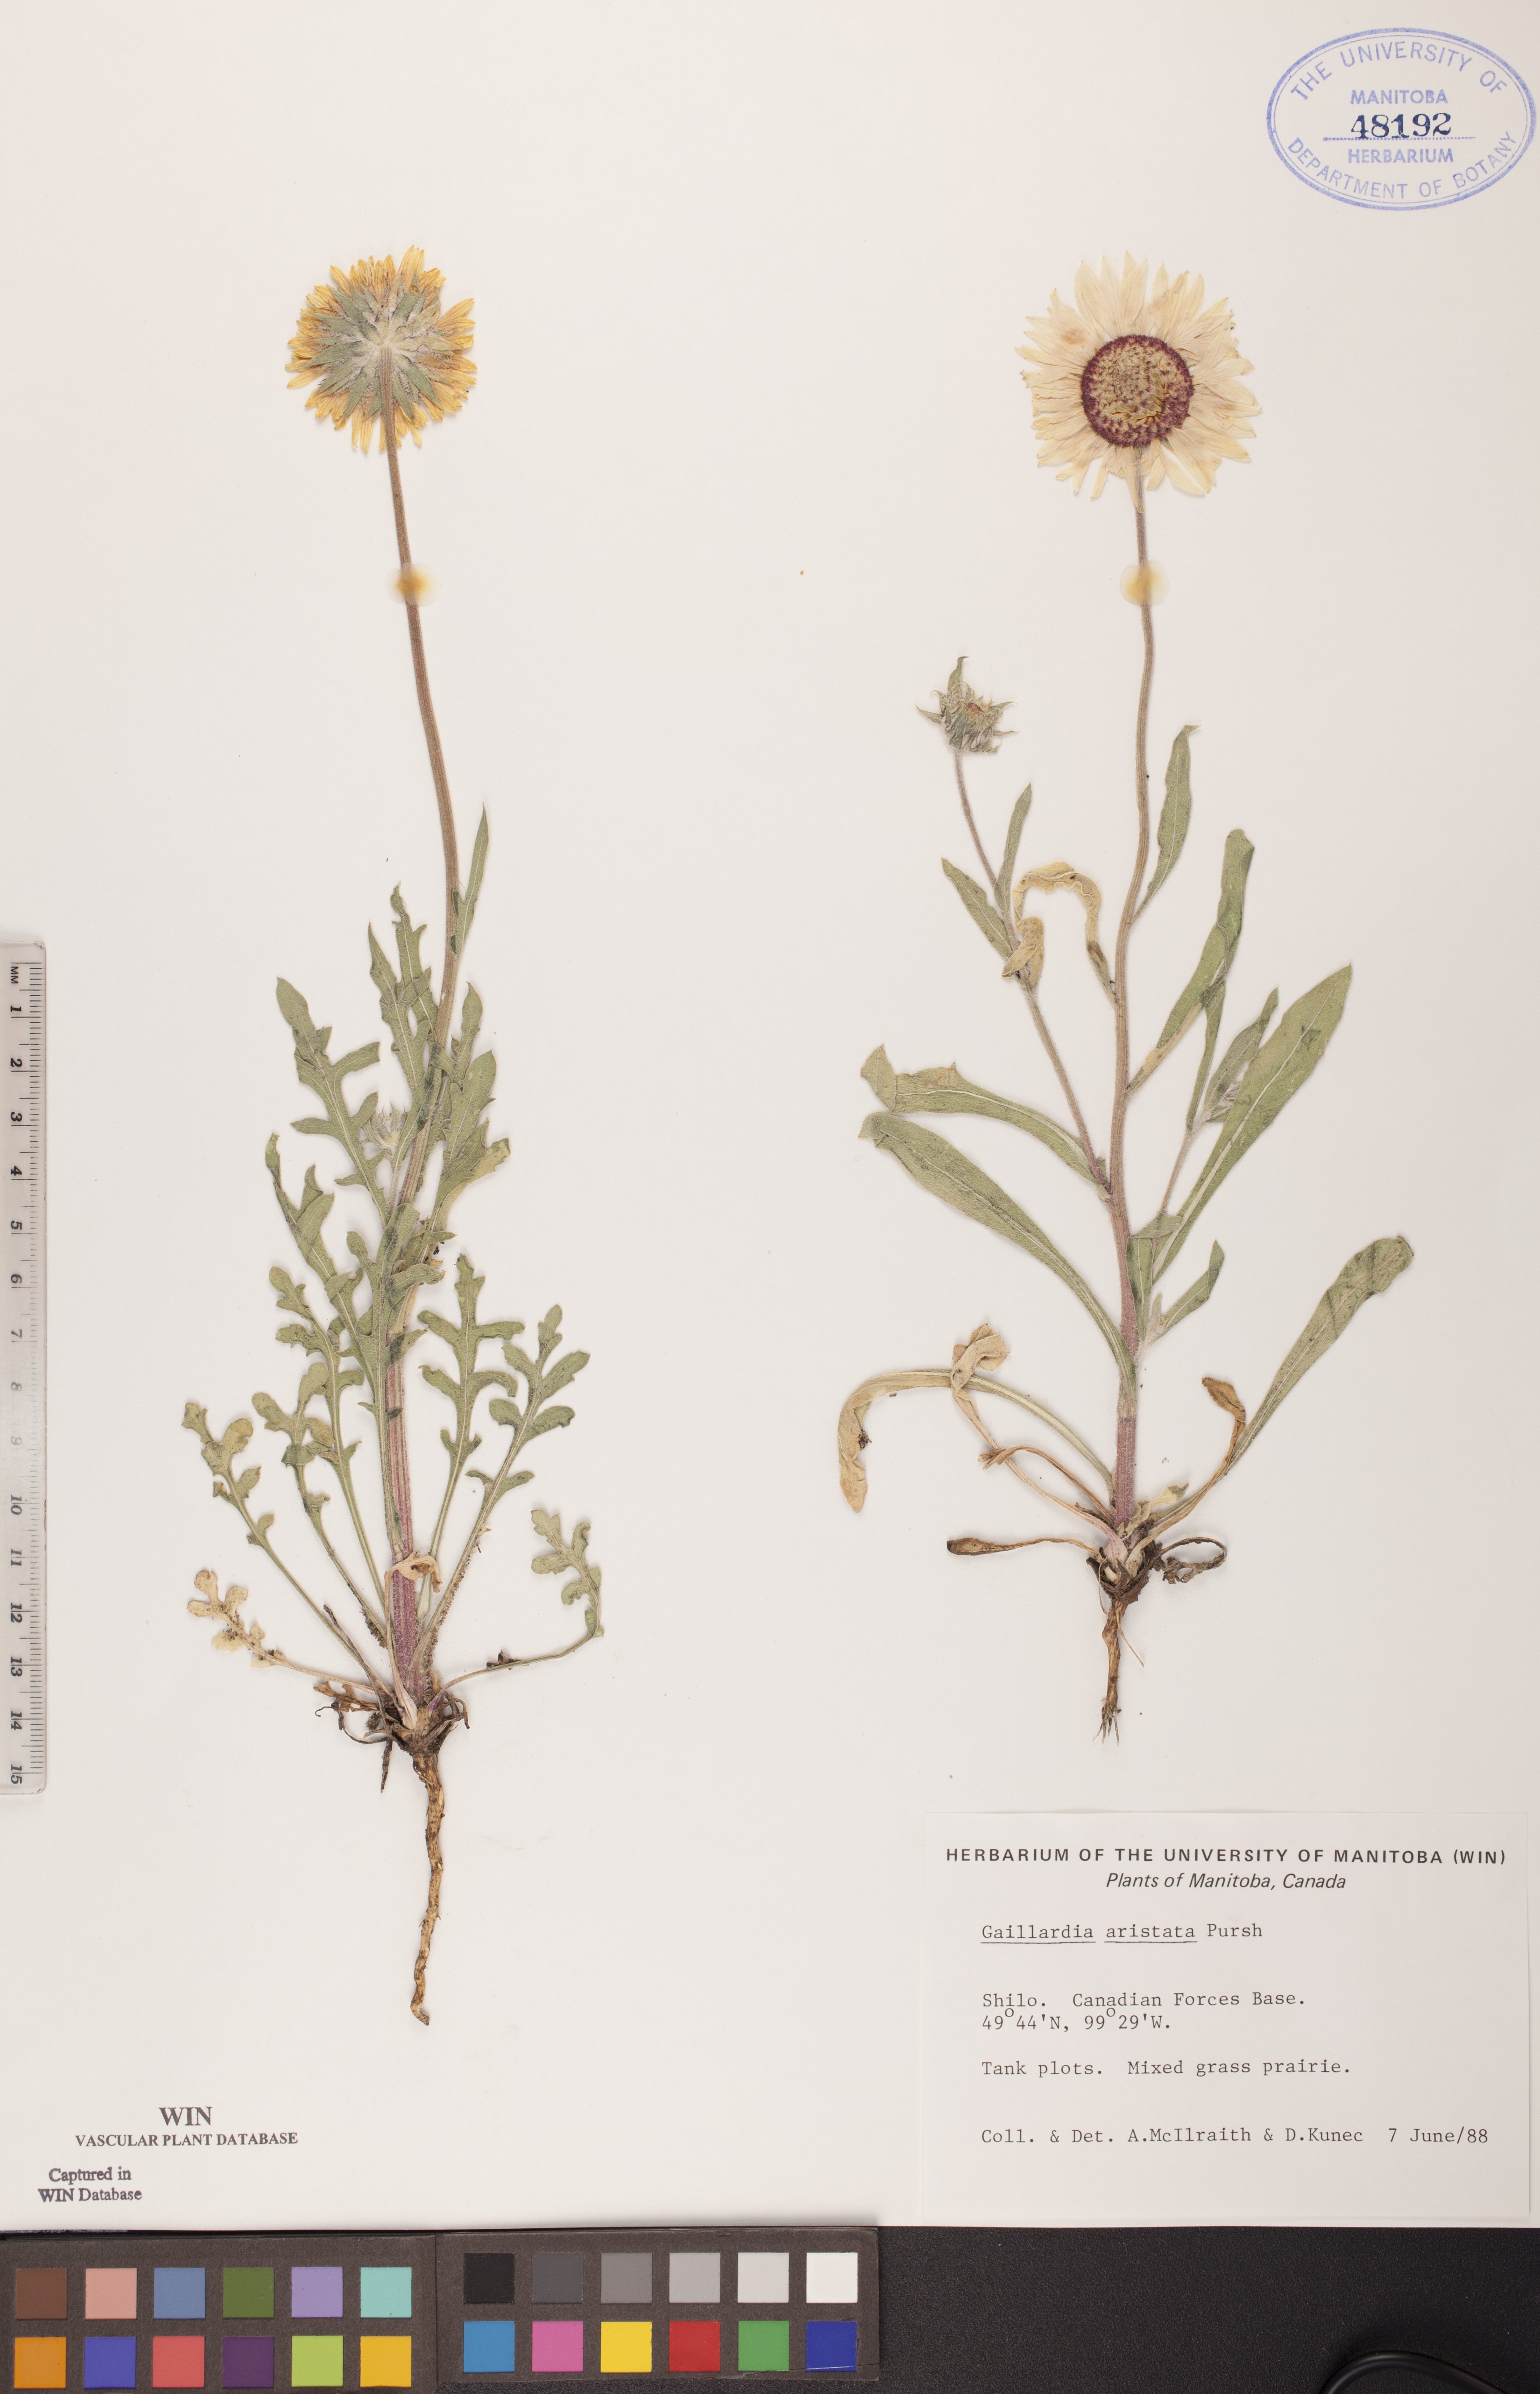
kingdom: Plantae
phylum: Tracheophyta
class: Magnoliopsida
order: Asterales
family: Asteraceae
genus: Gaillardia
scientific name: Gaillardia aristata
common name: Blanket-flower
